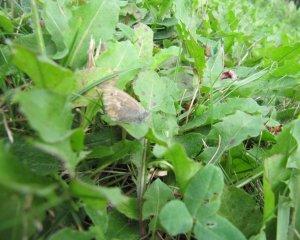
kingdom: Animalia
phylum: Arthropoda
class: Insecta
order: Lepidoptera
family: Nymphalidae
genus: Coenonympha
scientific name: Coenonympha tullia
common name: Large Heath
